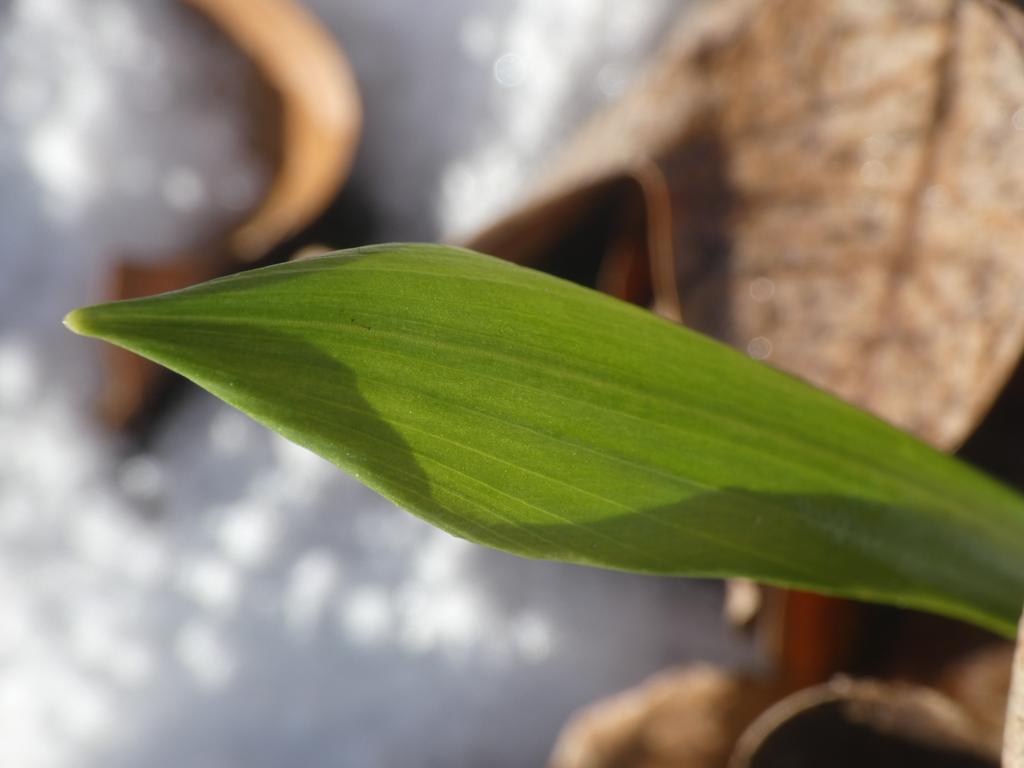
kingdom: Plantae
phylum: Tracheophyta
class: Liliopsida
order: Asparagales
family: Amaryllidaceae
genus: Allium
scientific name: Allium ursinum
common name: Rams-løg
